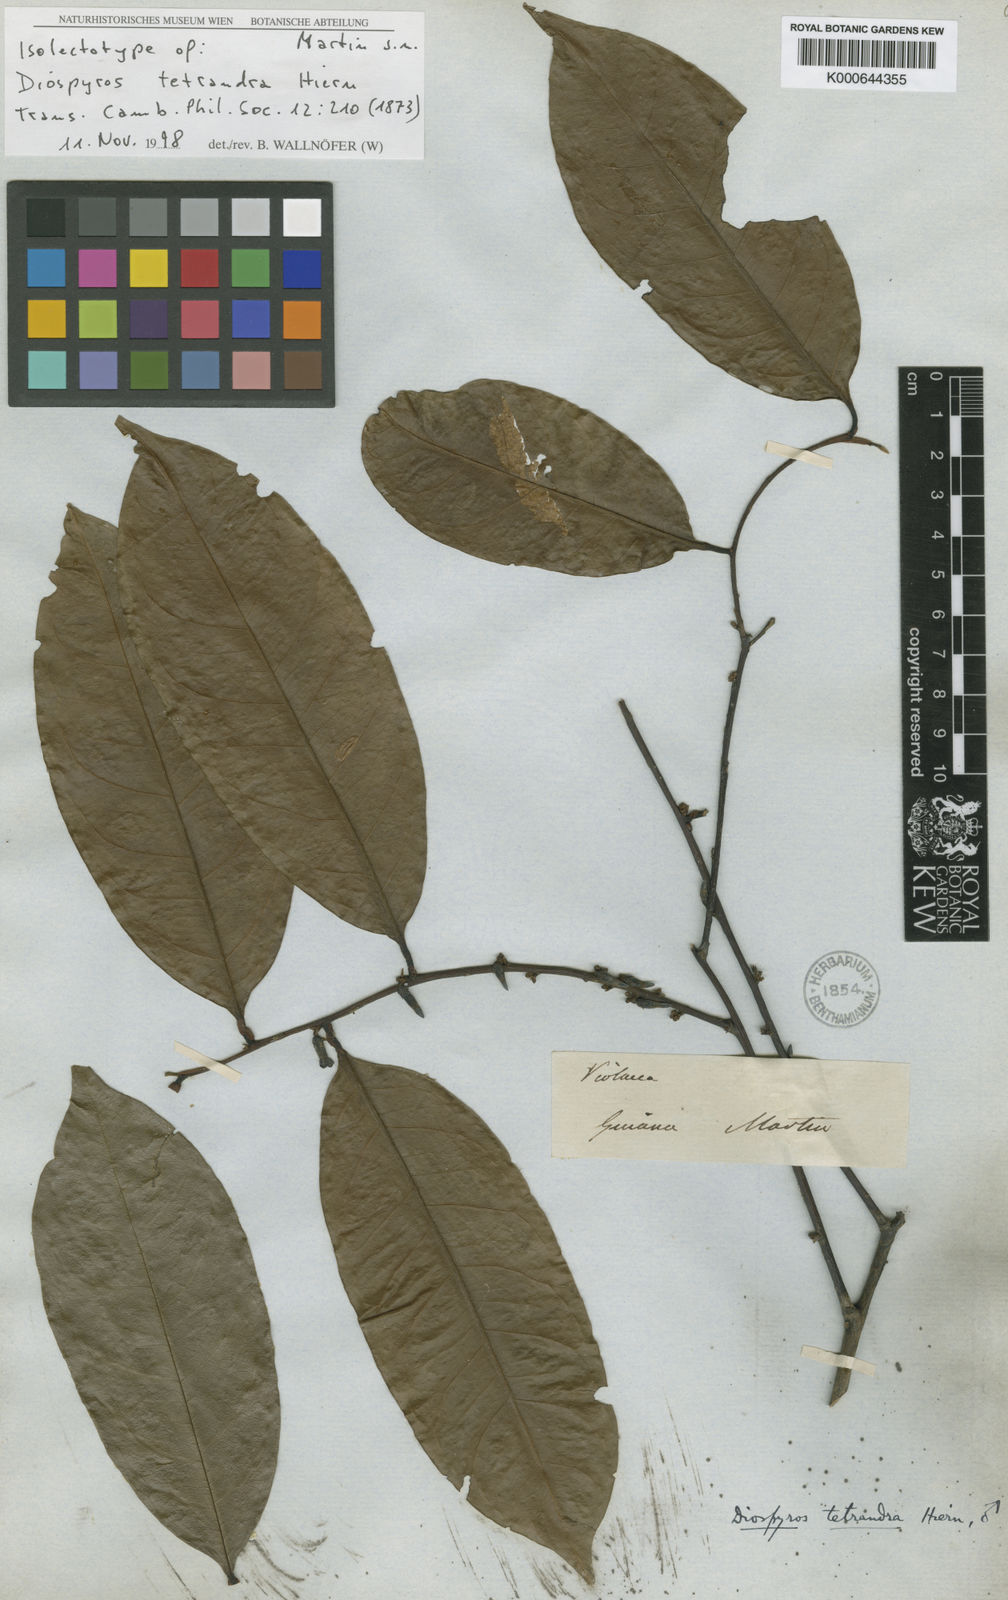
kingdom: Plantae
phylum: Tracheophyta
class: Magnoliopsida
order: Ericales
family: Ebenaceae
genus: Diospyros
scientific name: Diospyros tetrandra
